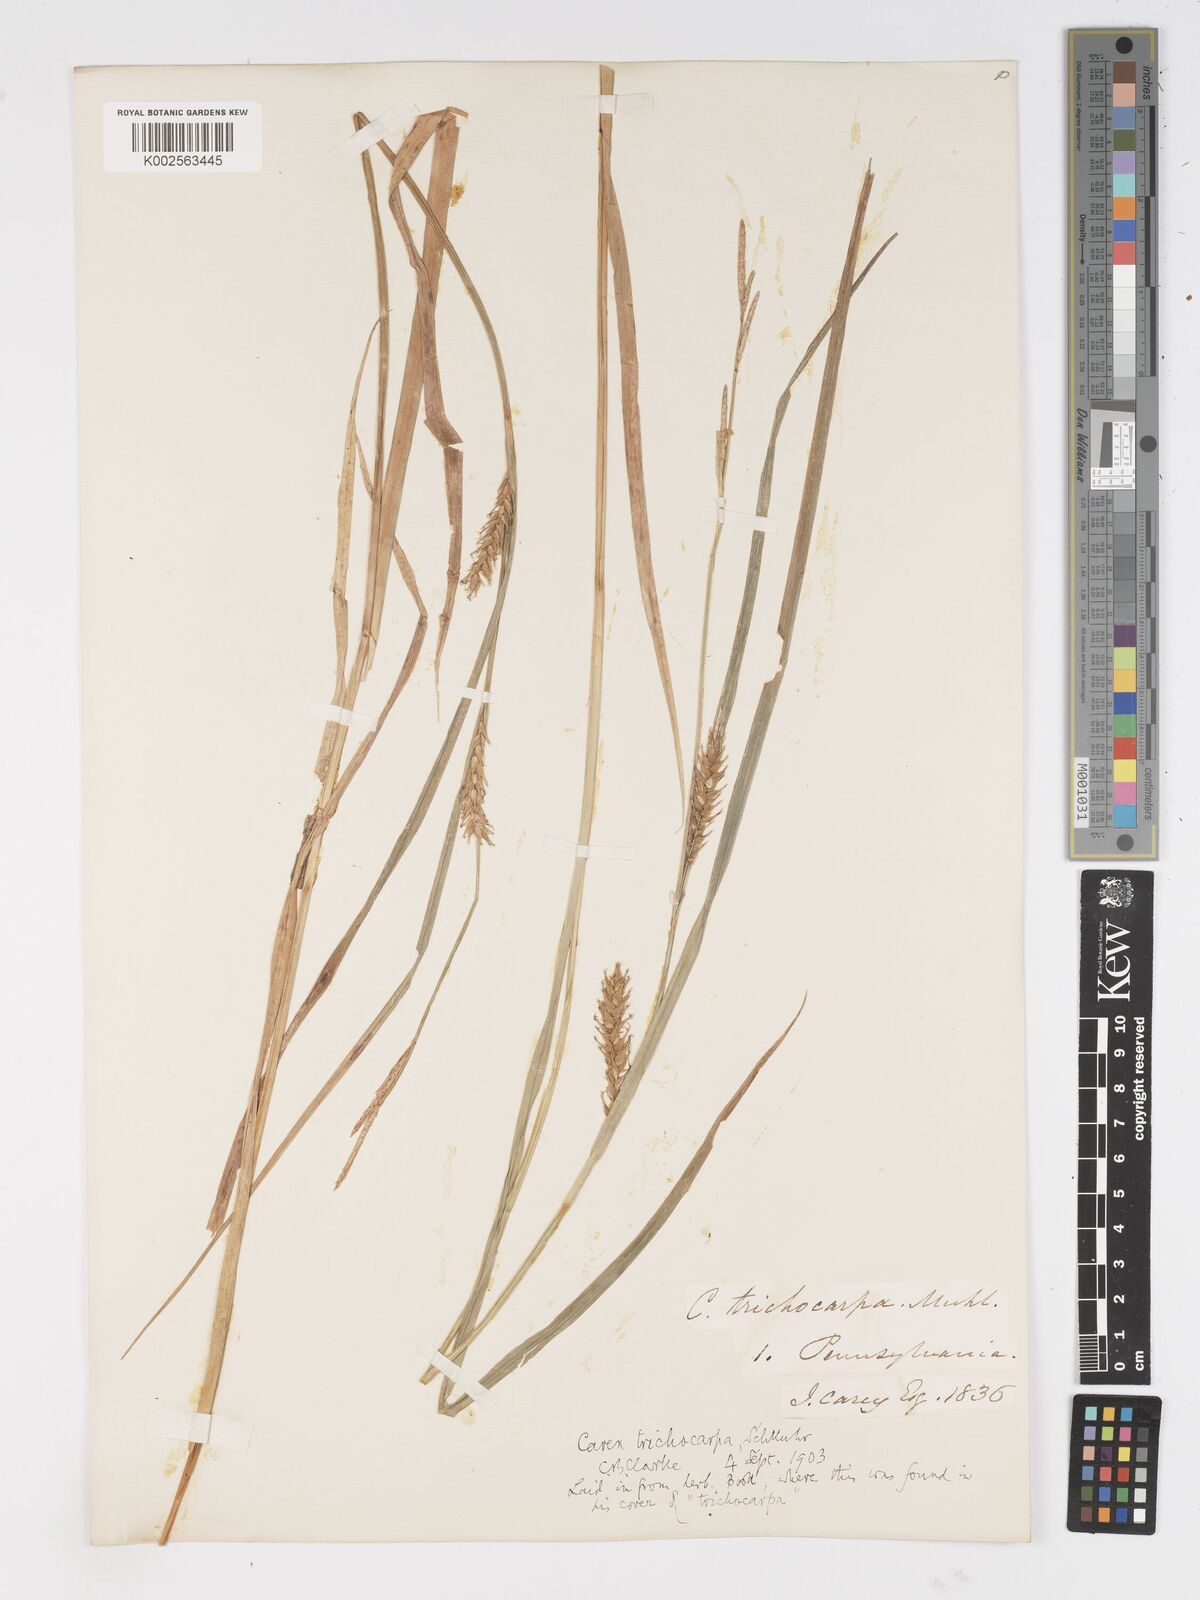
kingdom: Plantae
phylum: Tracheophyta
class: Liliopsida
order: Poales
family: Cyperaceae
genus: Carex
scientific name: Carex trichocarpa
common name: Hairy-fruited lake sedge
